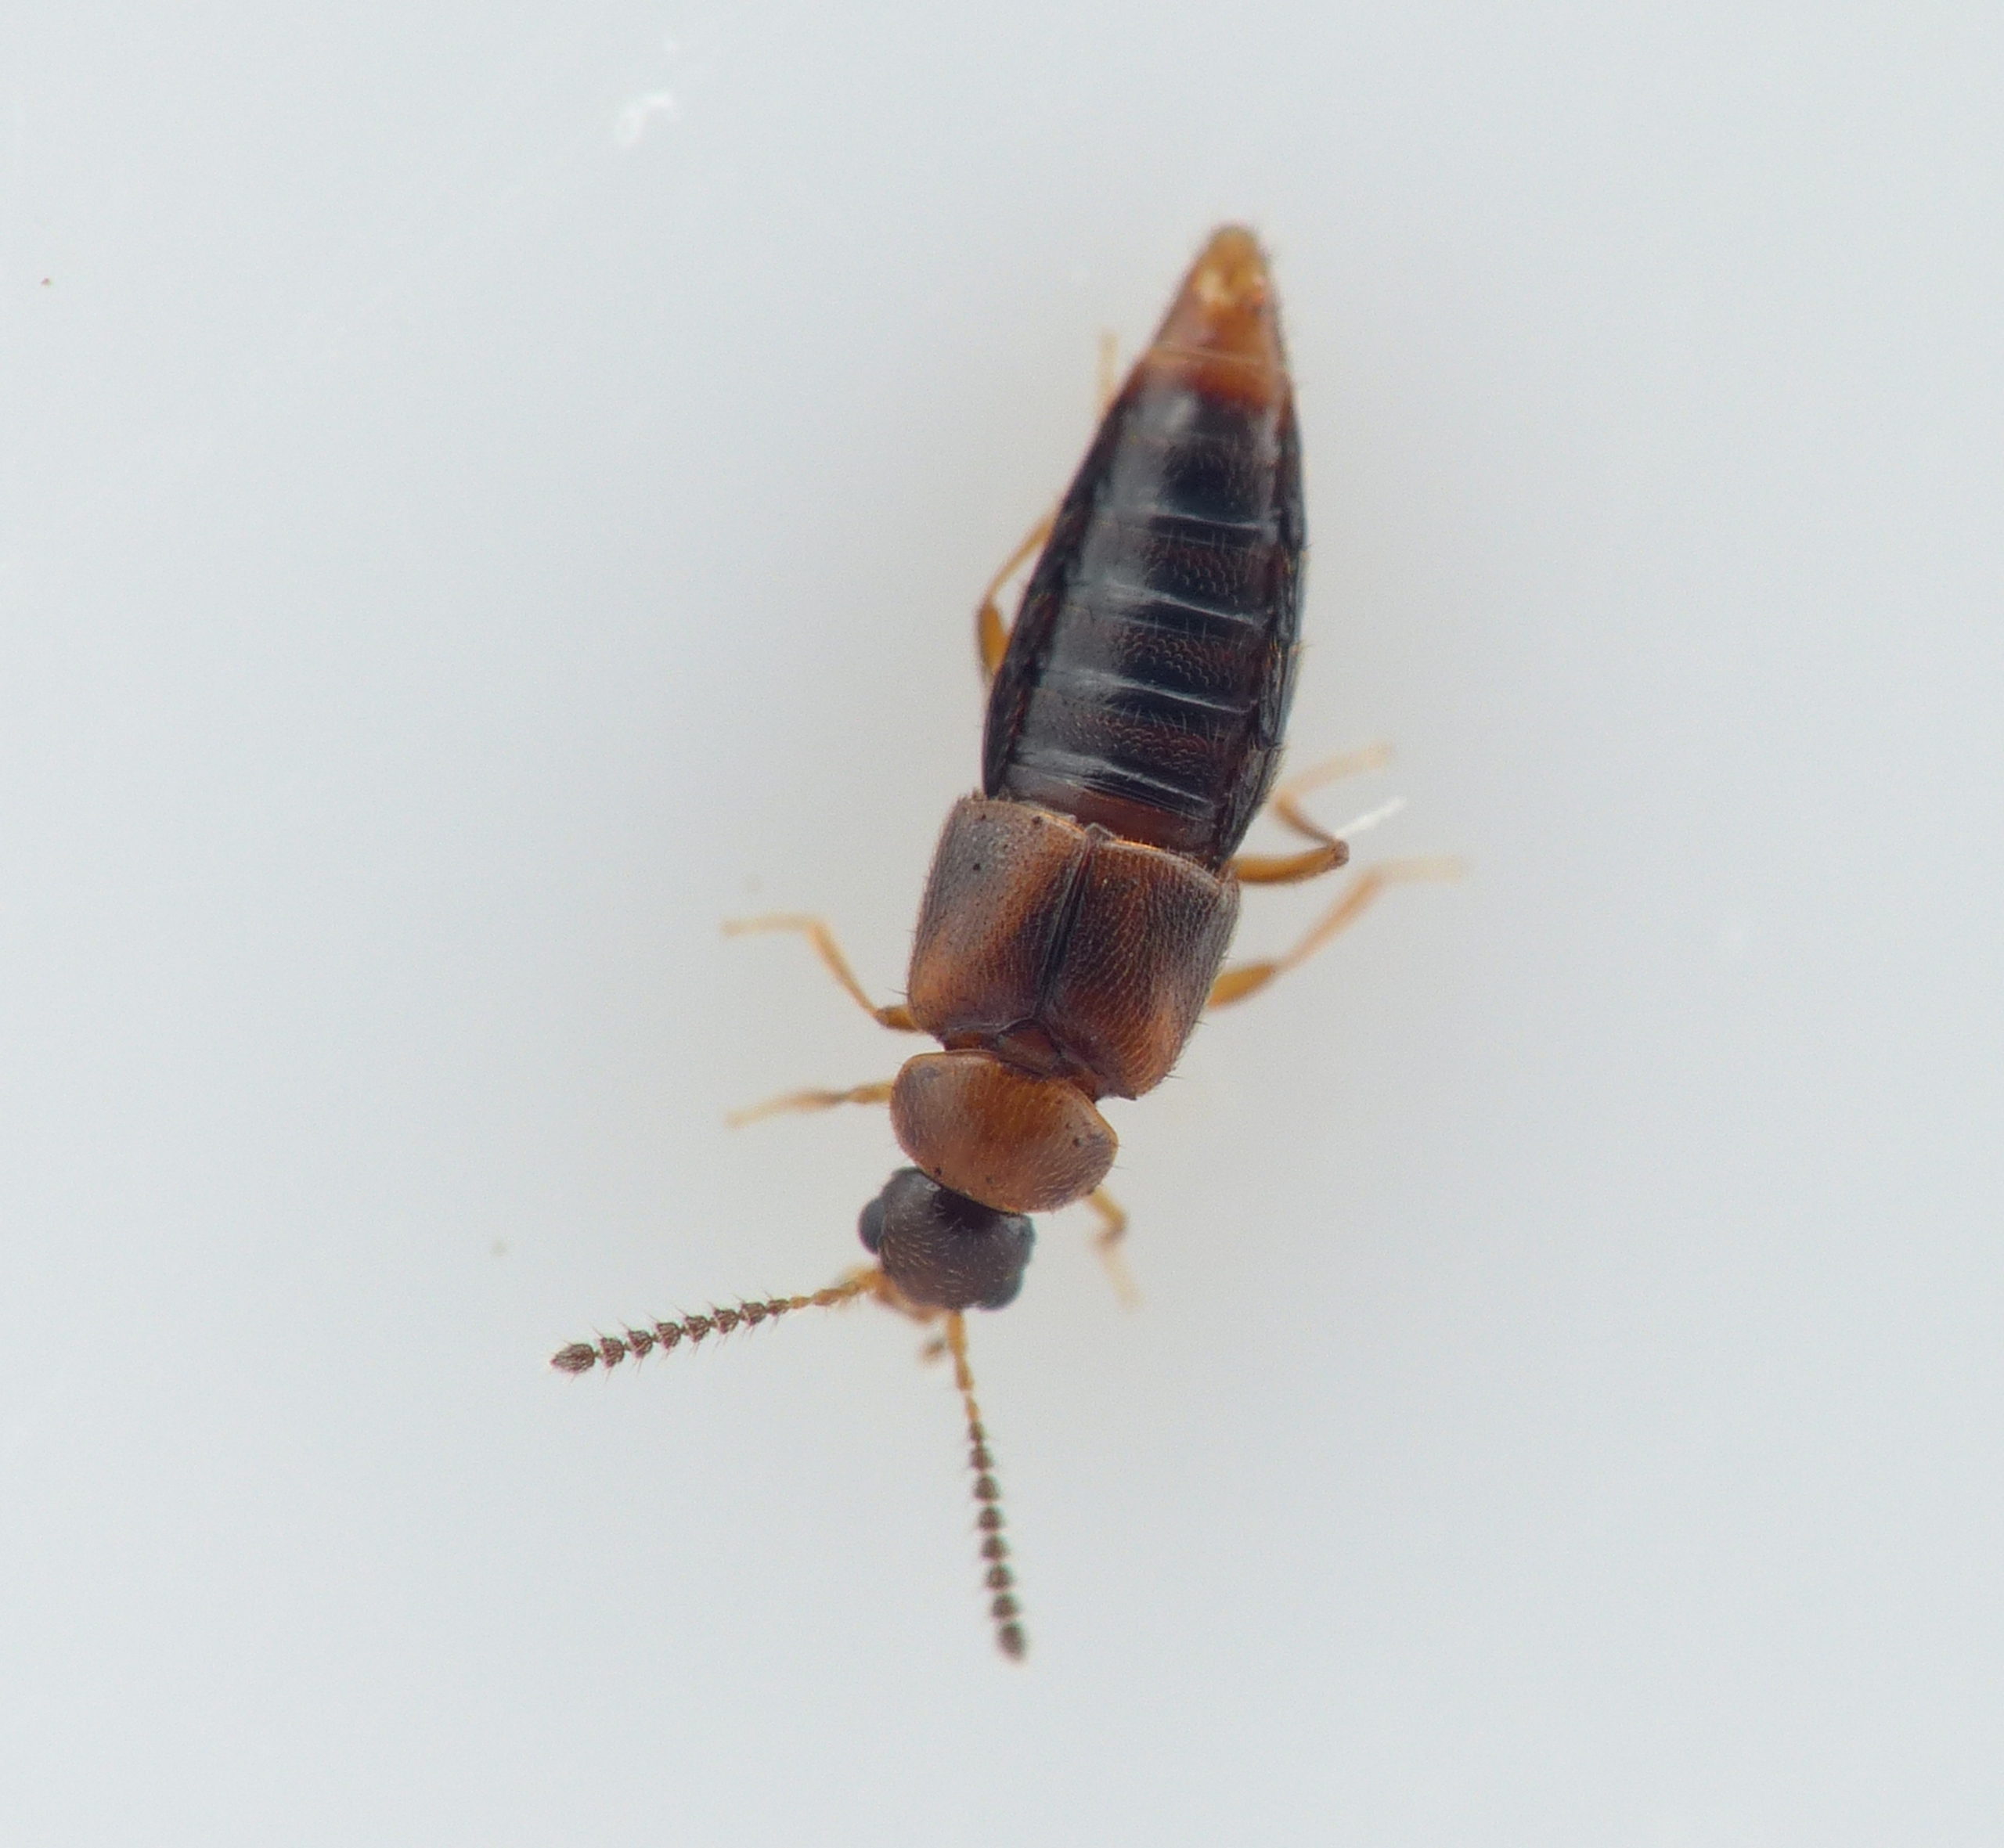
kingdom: Animalia
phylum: Arthropoda
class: Insecta
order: Coleoptera
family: Staphylinidae
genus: Agaricochara
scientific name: Agaricochara latissima
